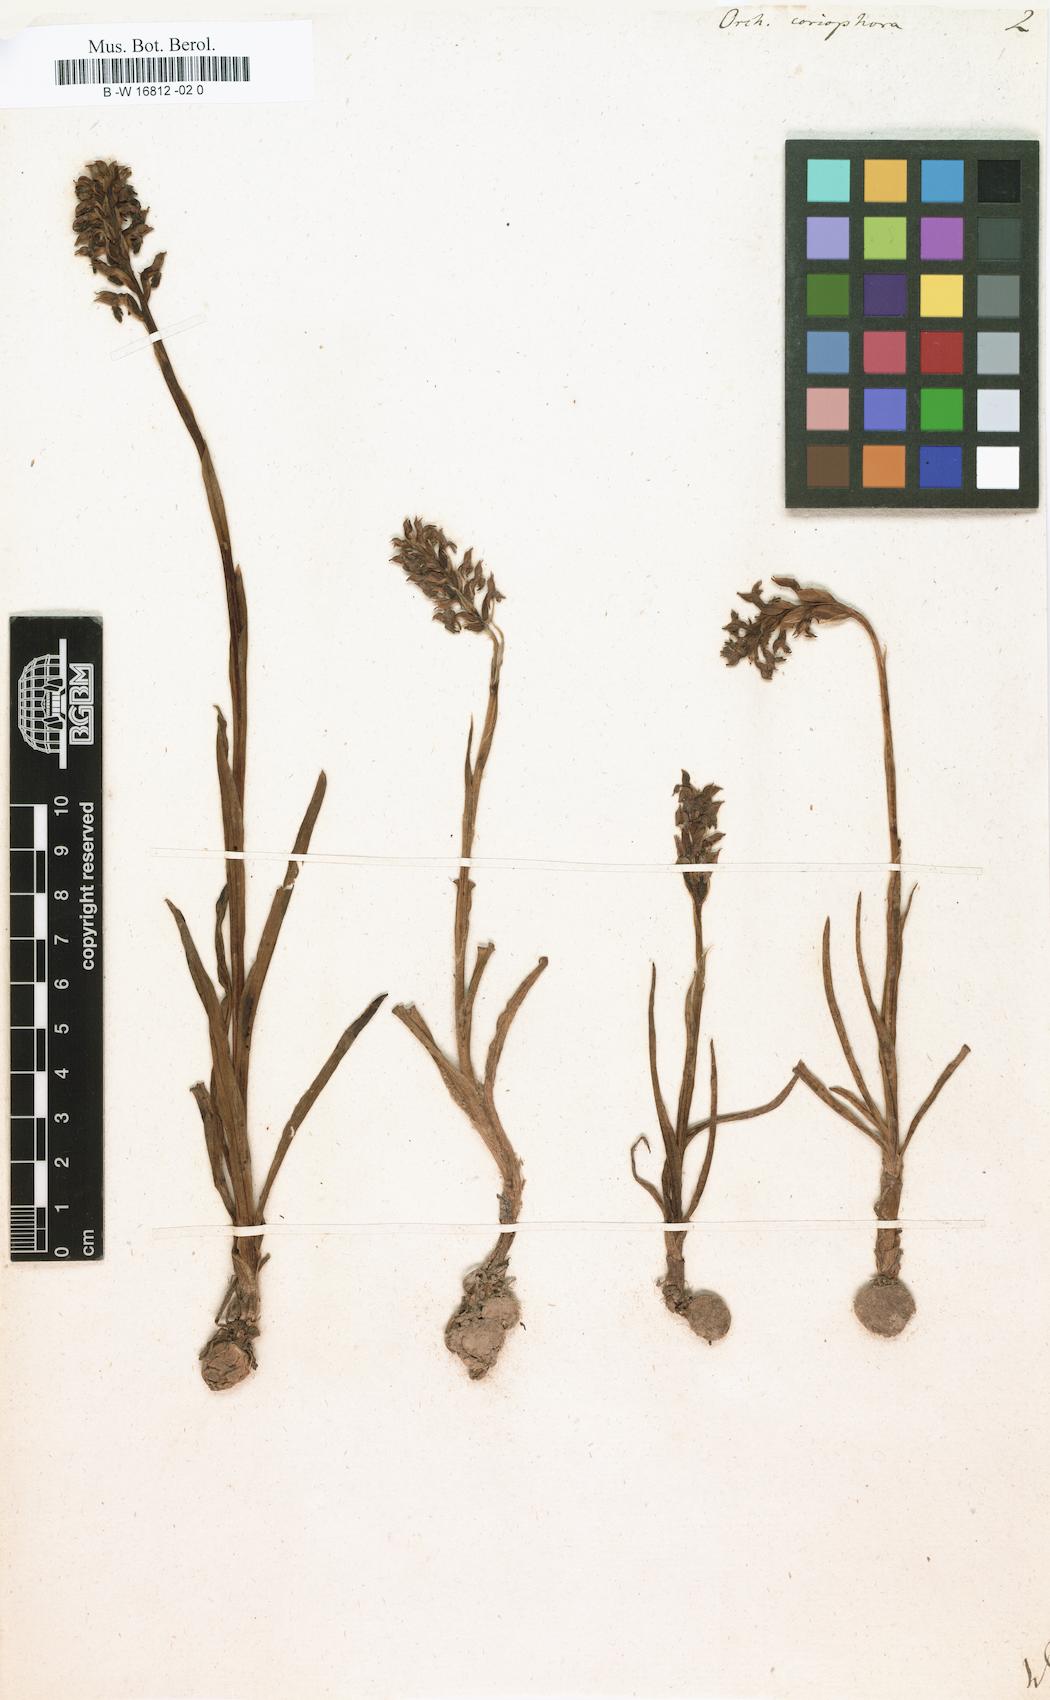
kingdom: Plantae
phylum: Tracheophyta
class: Liliopsida
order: Asparagales
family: Orchidaceae
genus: Anacamptis
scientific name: Anacamptis coriophora
